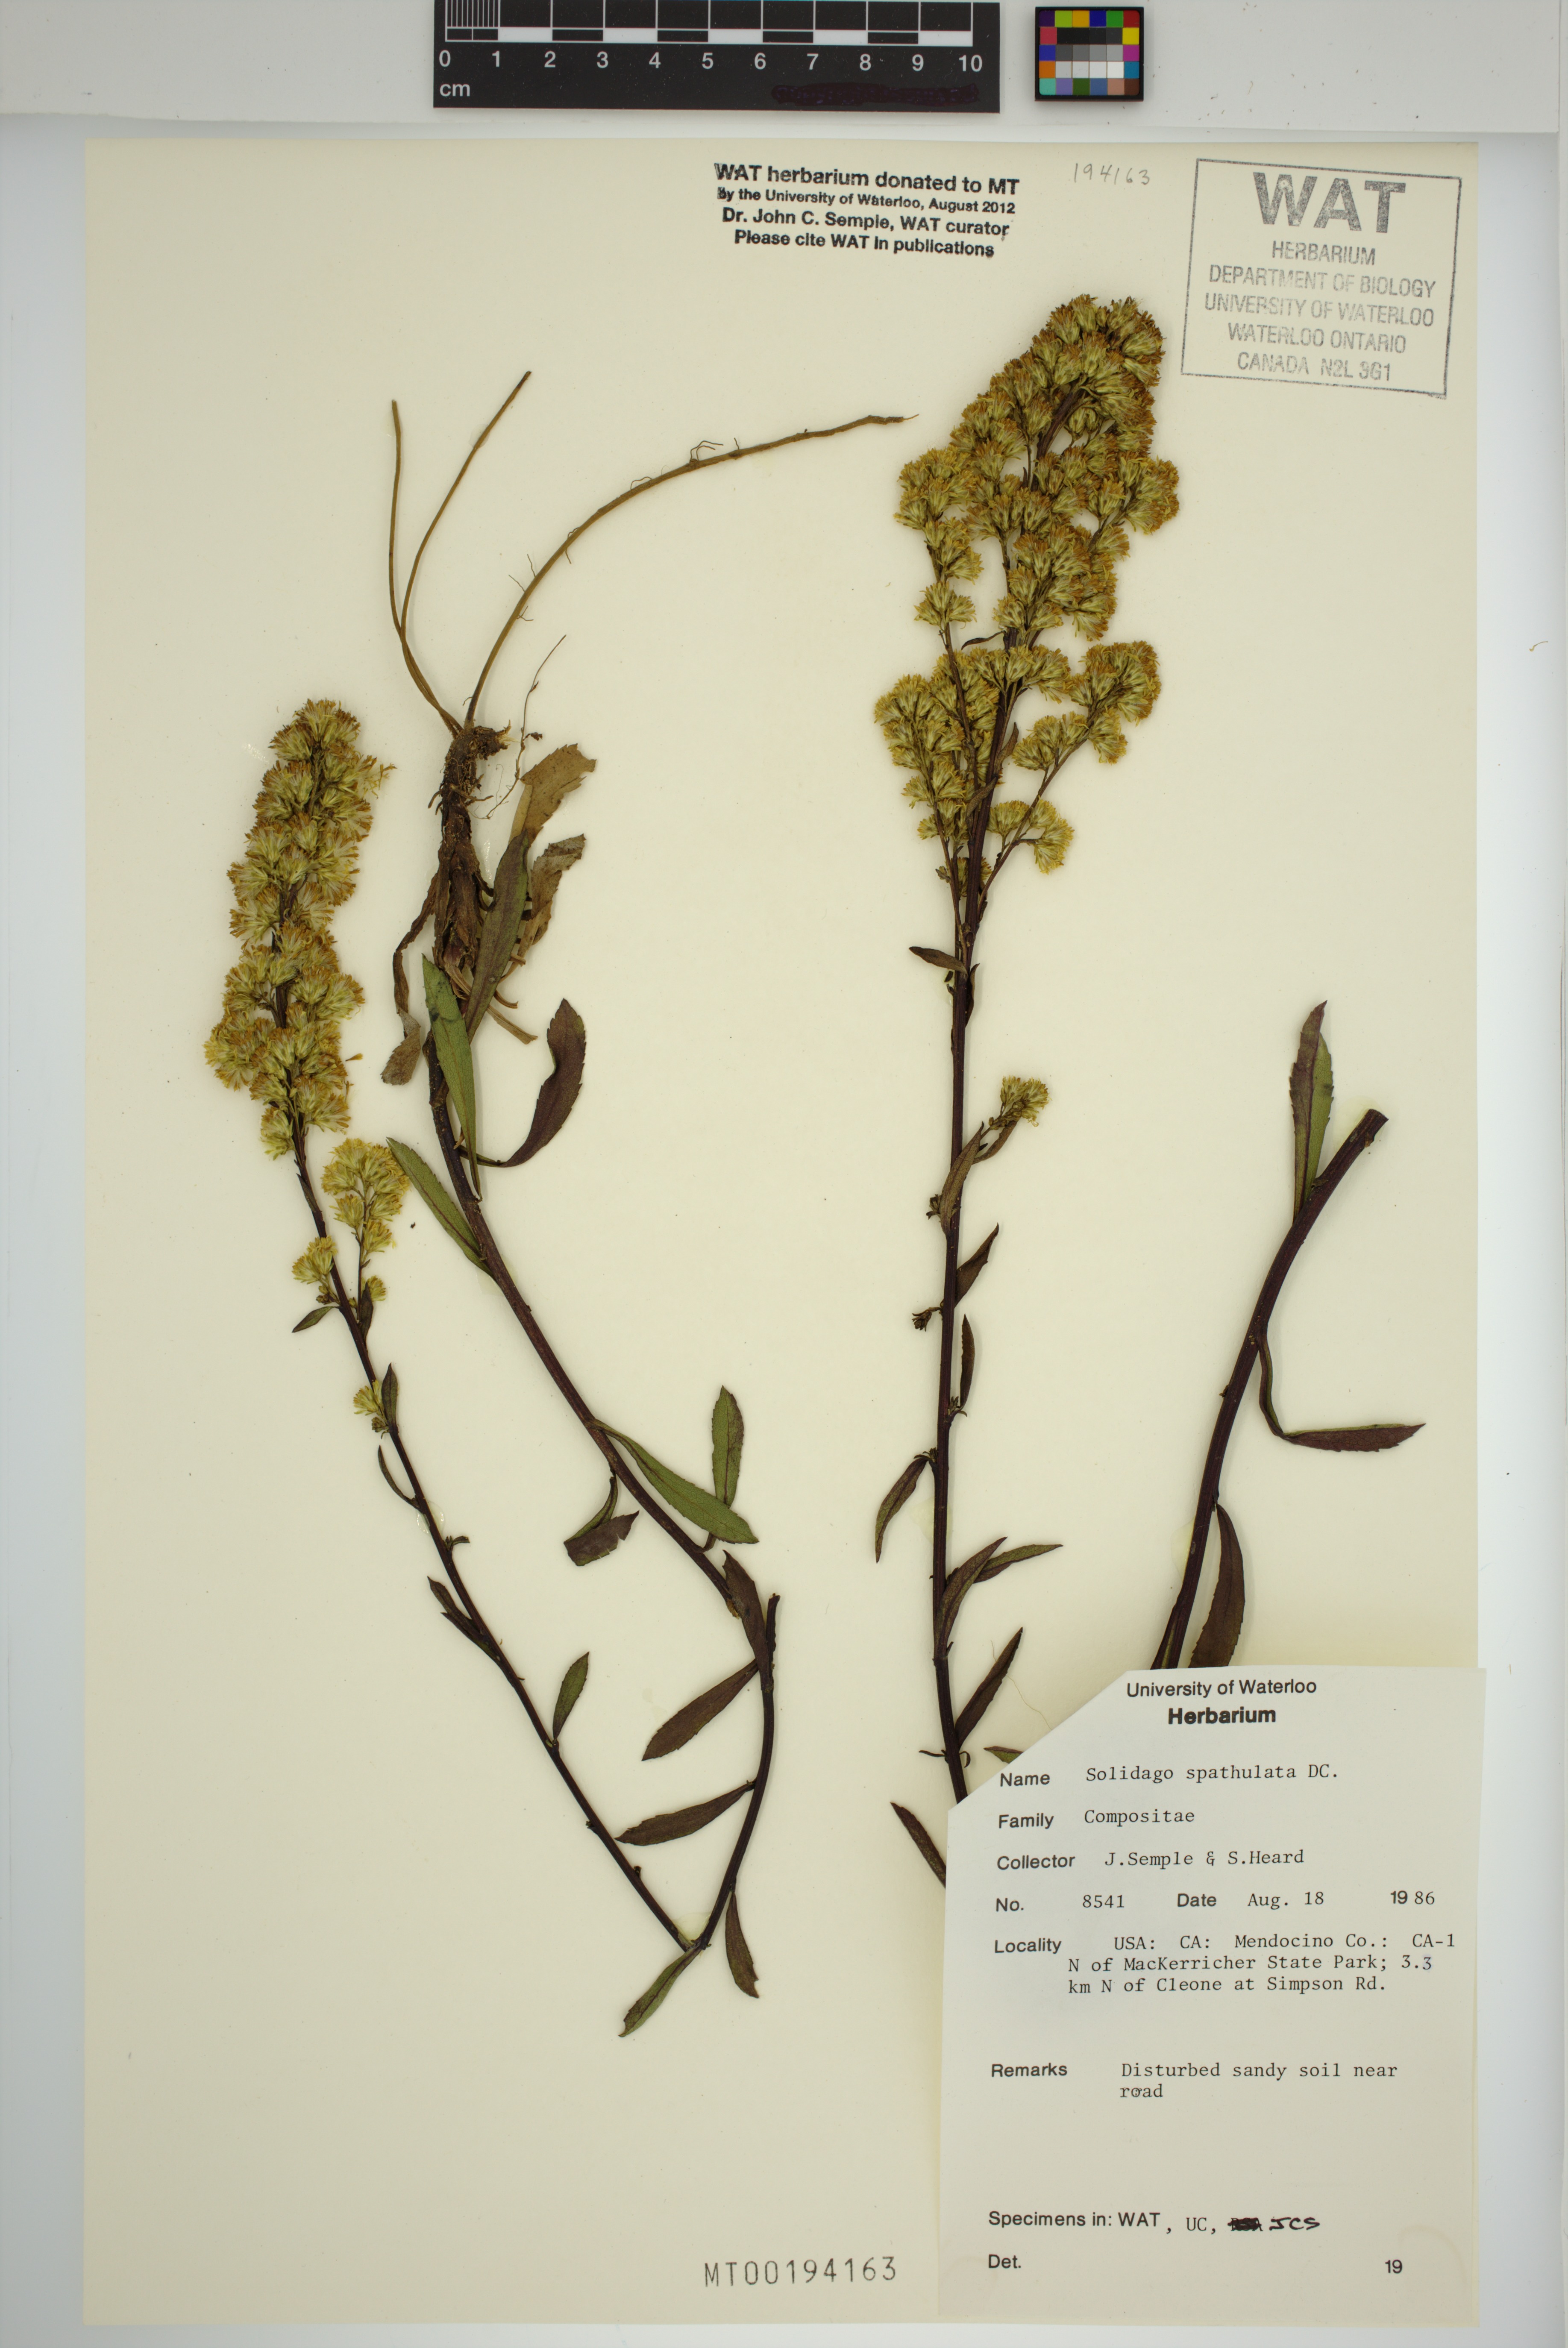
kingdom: Plantae
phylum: Tracheophyta
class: Magnoliopsida
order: Asterales
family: Asteraceae
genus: Solidago
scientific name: Solidago spathulata
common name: Coast goldenrod
